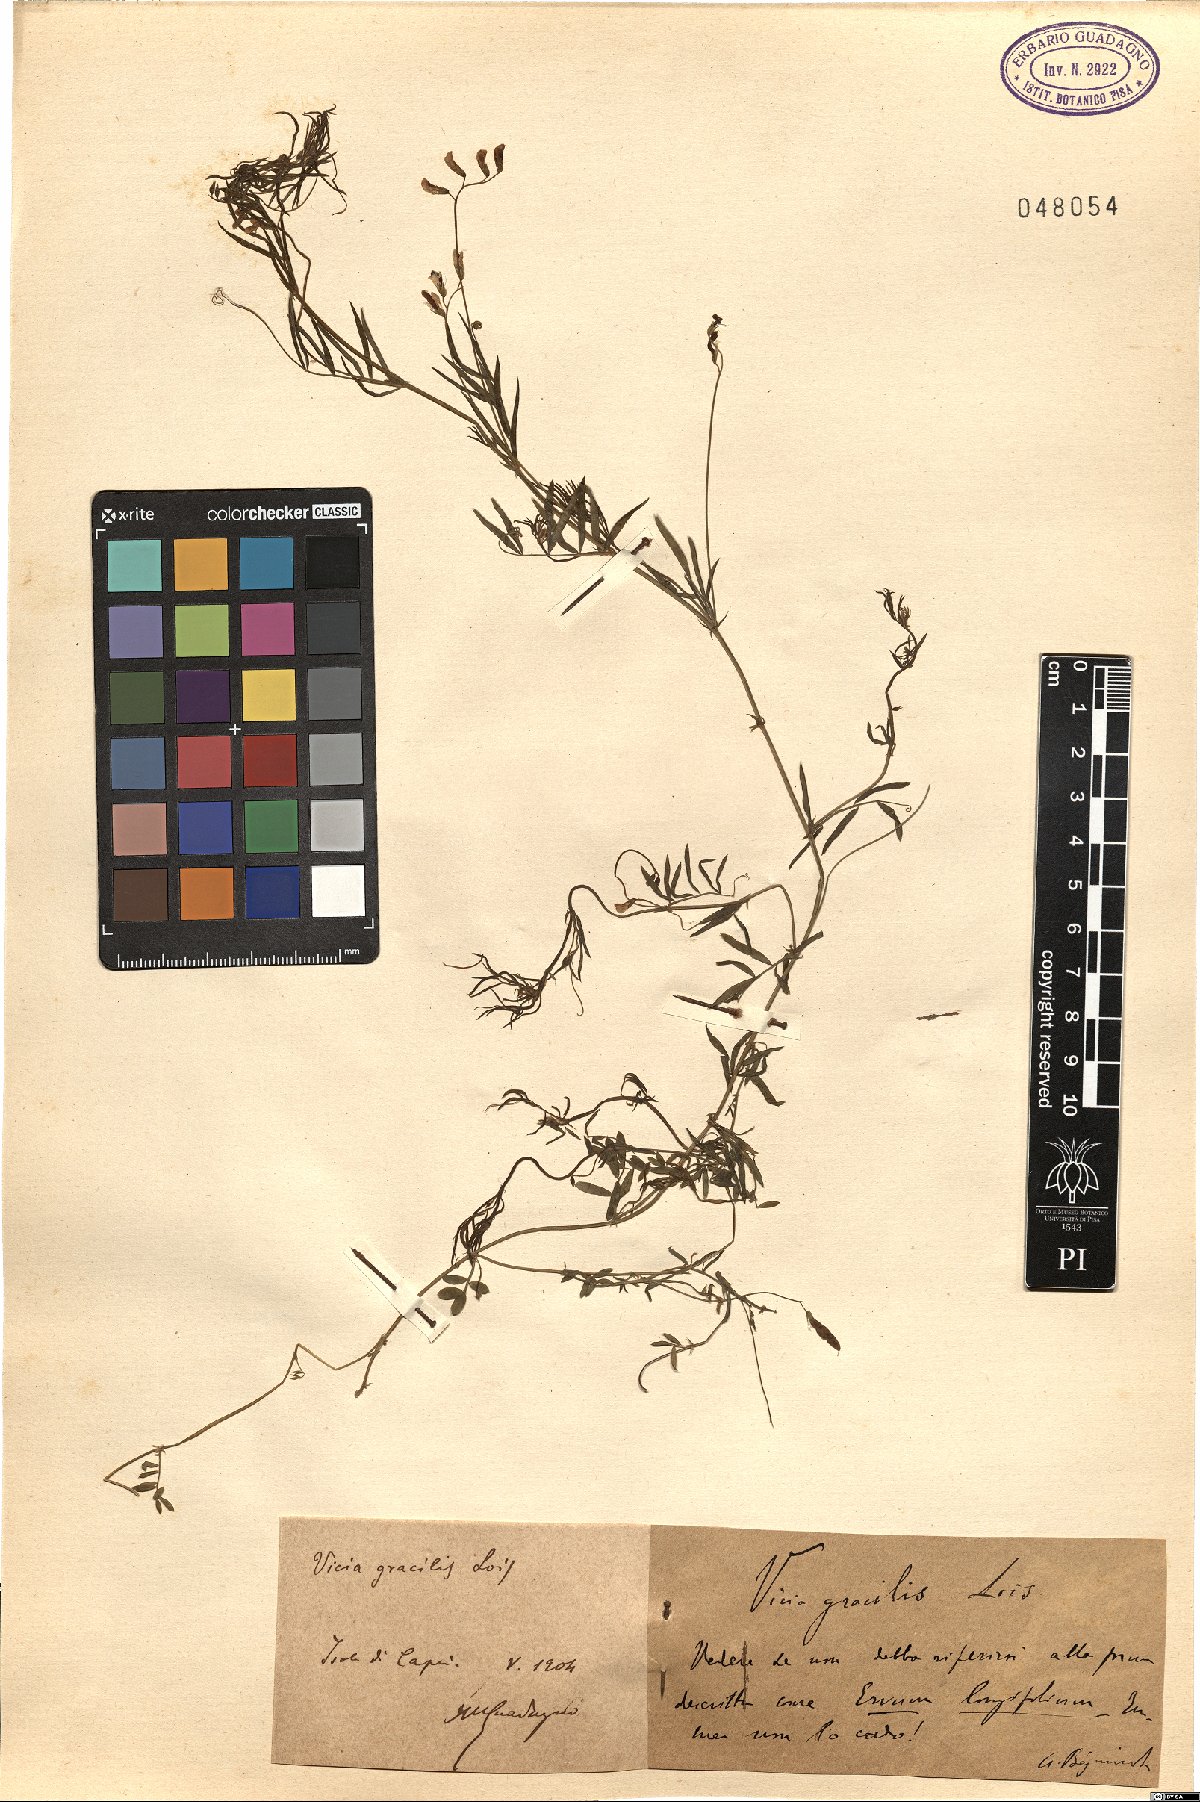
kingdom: Plantae
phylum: Tracheophyta
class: Magnoliopsida
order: Fabales
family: Fabaceae
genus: Vicia
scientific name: Vicia parviflora
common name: Slender tare
